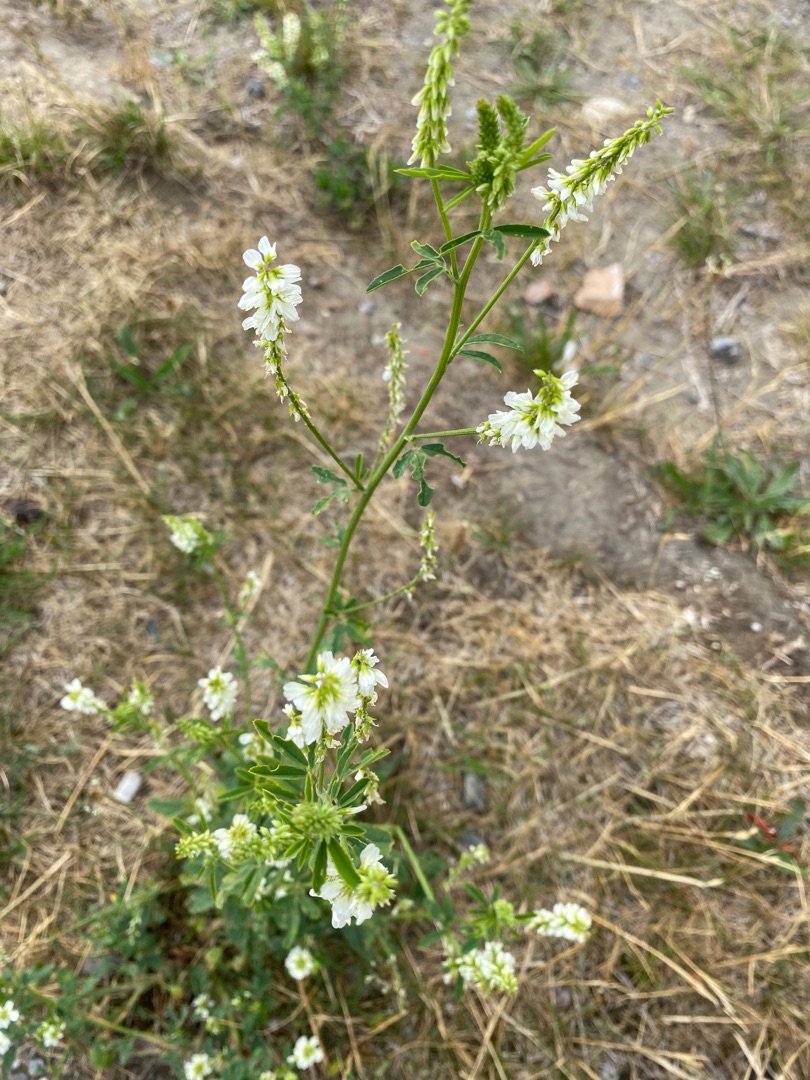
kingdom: Plantae
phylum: Tracheophyta
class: Magnoliopsida
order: Fabales
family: Fabaceae
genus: Melilotus
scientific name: Melilotus albus
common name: Hvid stenkløver
